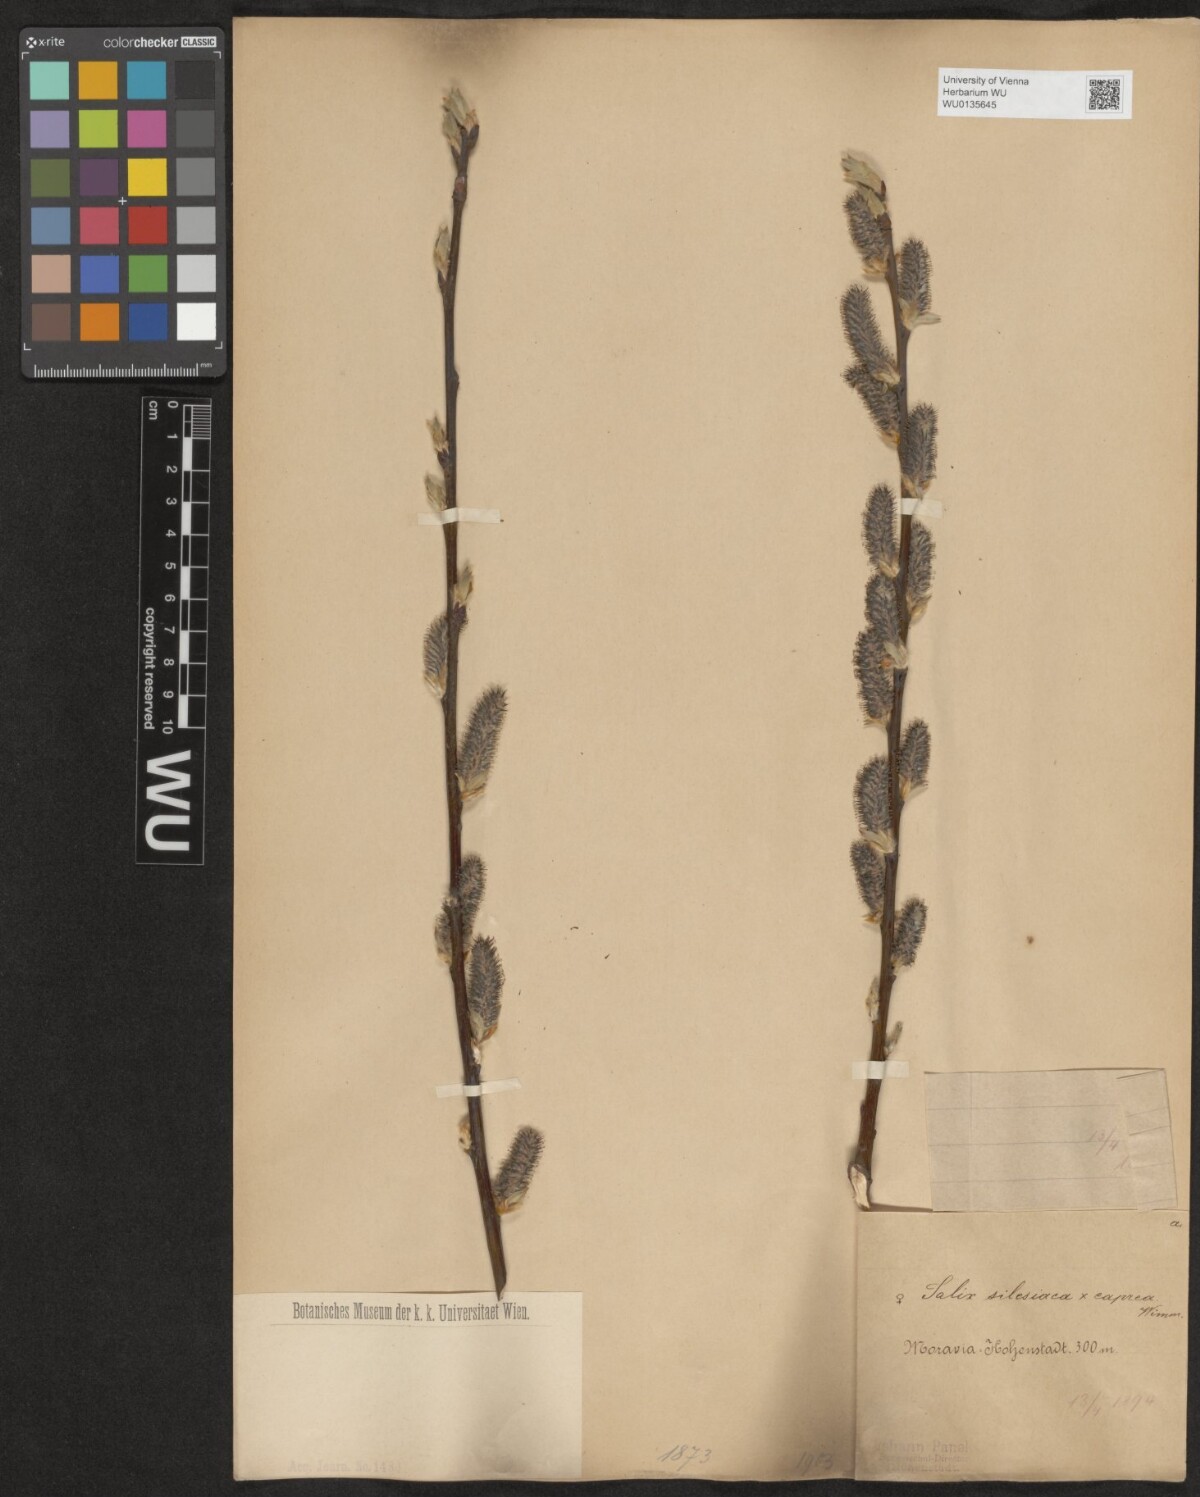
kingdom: Plantae
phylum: Tracheophyta
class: Magnoliopsida
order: Malpighiales
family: Salicaceae
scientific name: Salicaceae
